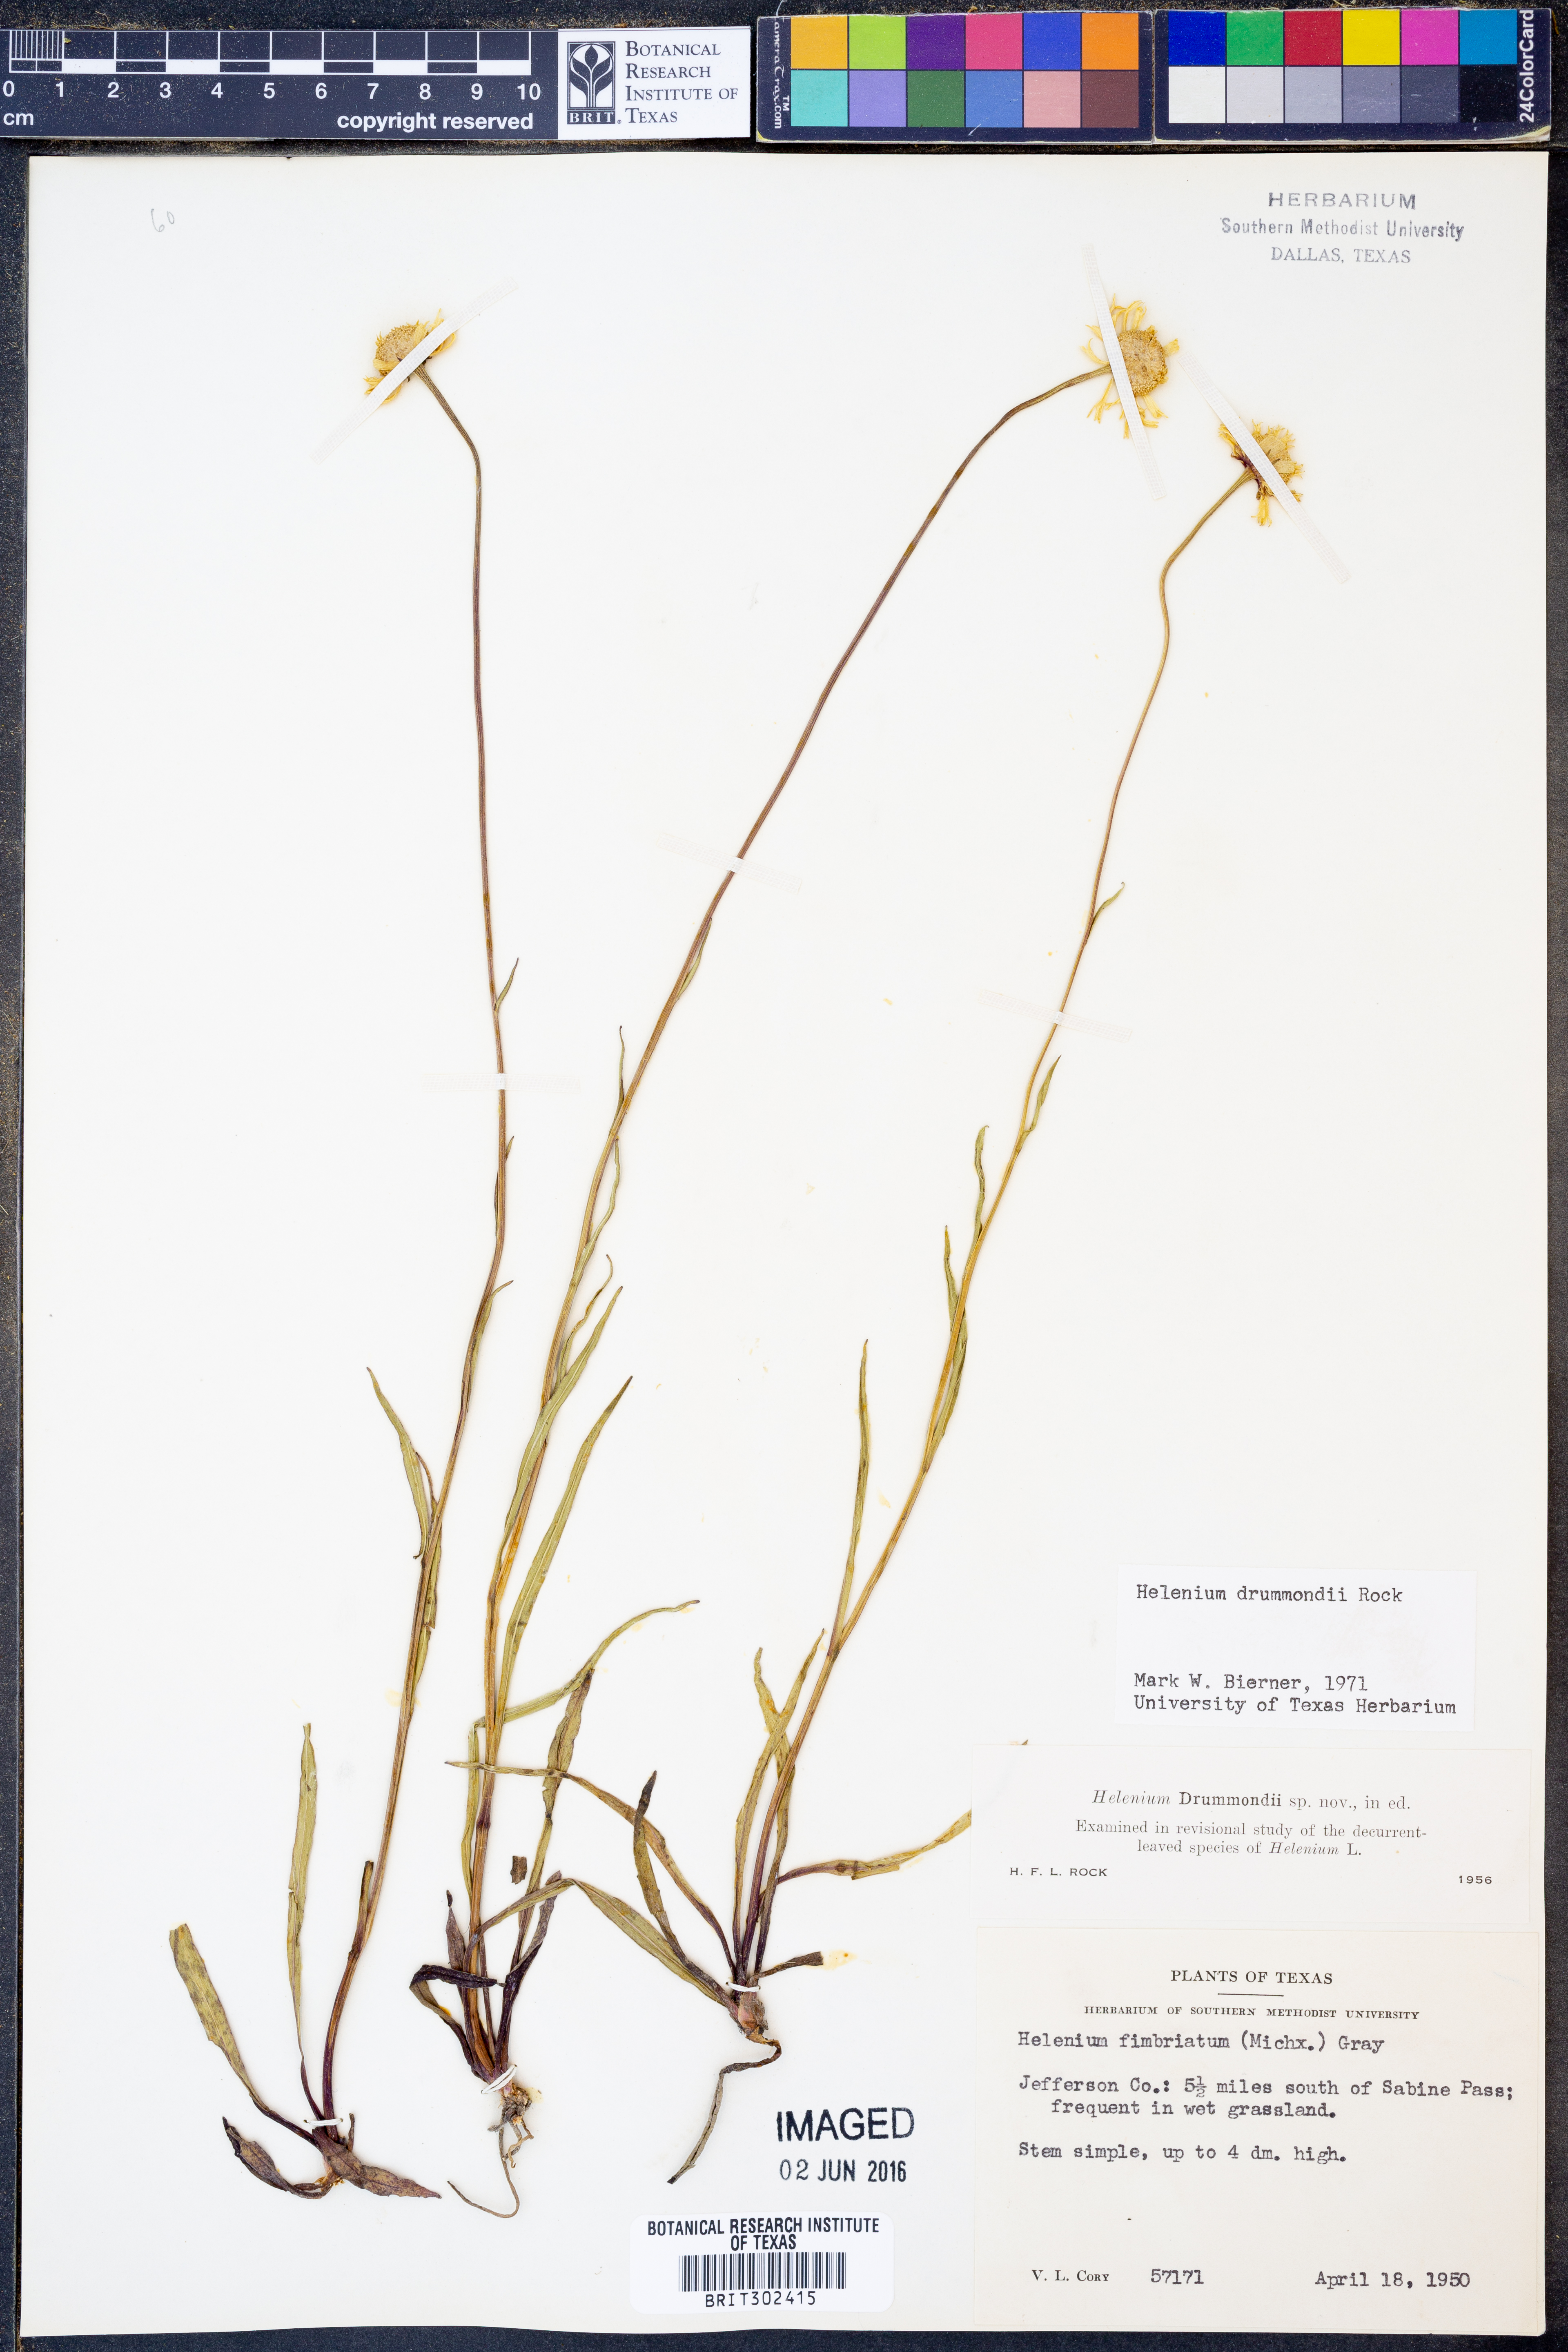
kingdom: Plantae
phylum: Tracheophyta
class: Magnoliopsida
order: Asterales
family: Asteraceae
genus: Helenium
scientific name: Helenium drummondii
